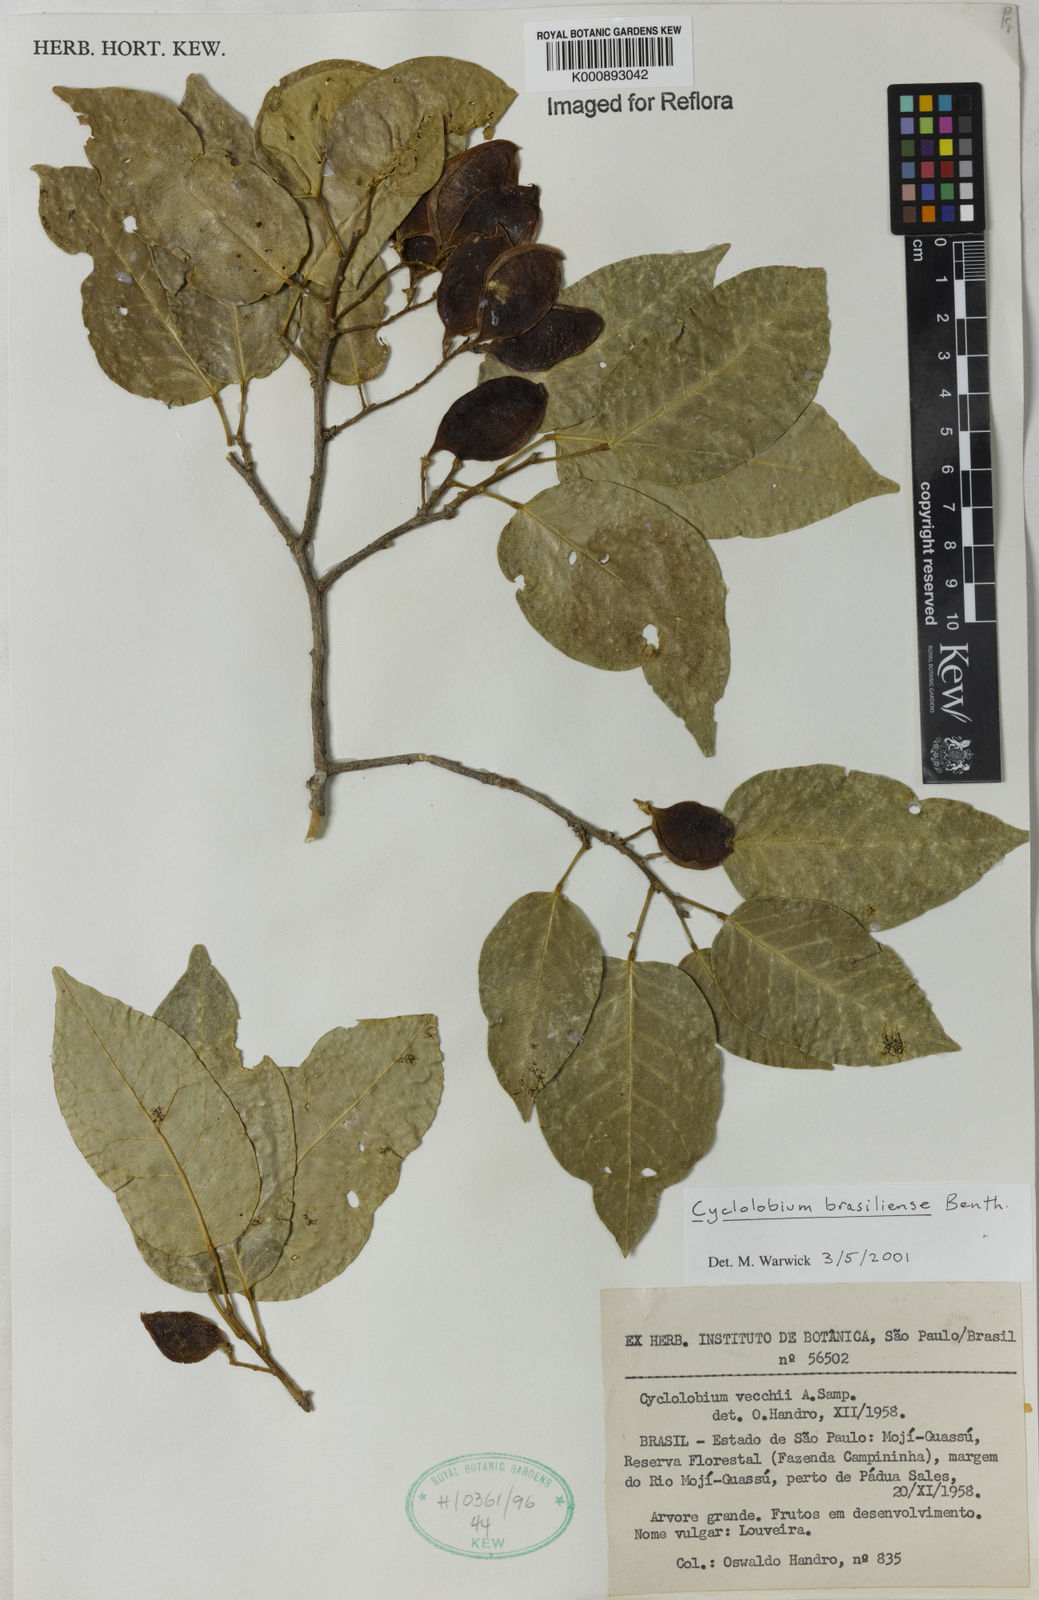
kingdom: Plantae
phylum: Tracheophyta
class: Magnoliopsida
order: Fabales
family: Fabaceae
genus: Cyclolobium
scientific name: Cyclolobium brasiliense
